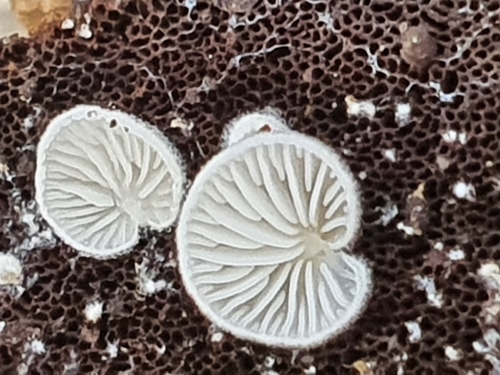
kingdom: Fungi
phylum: Basidiomycota
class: Agaricomycetes
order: Agaricales
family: Crepidotaceae
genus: Crepidotus
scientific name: Crepidotus epibryus
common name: Grass oysterling
